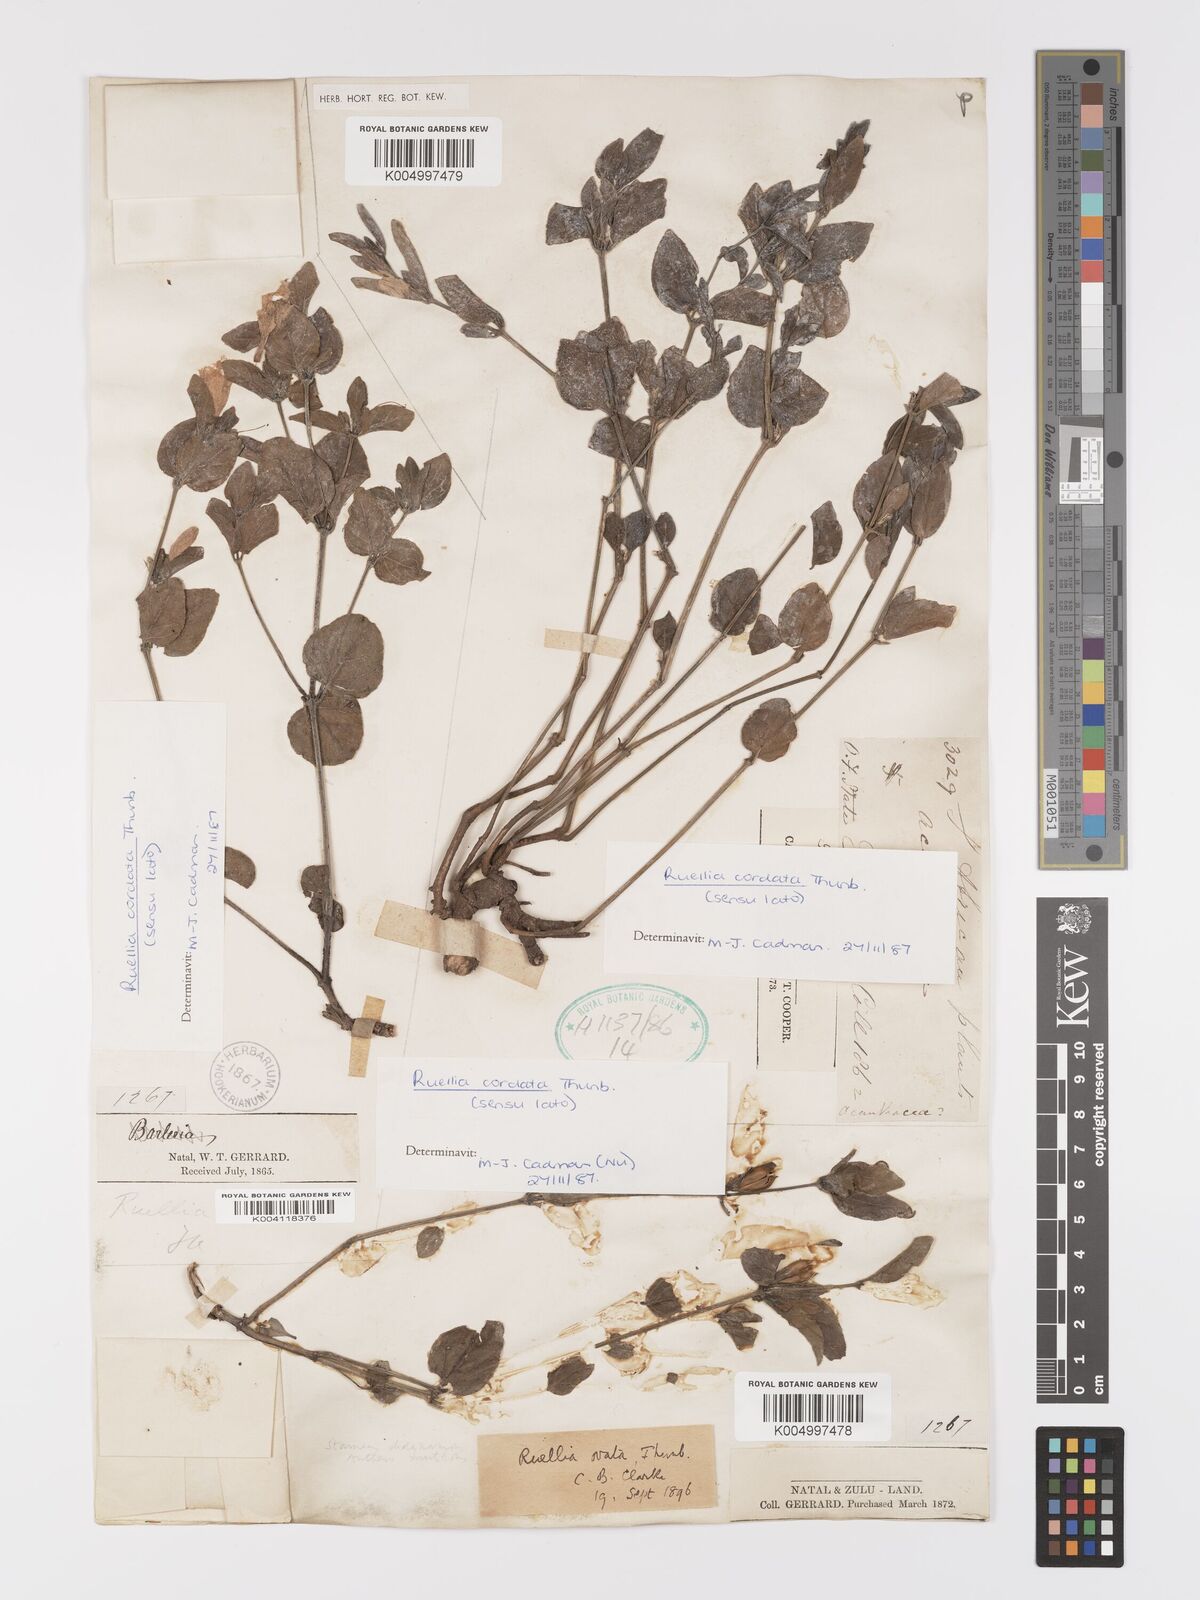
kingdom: Plantae
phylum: Tracheophyta
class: Magnoliopsida
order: Lamiales
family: Acanthaceae
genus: Ruellia
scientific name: Ruellia cordata
